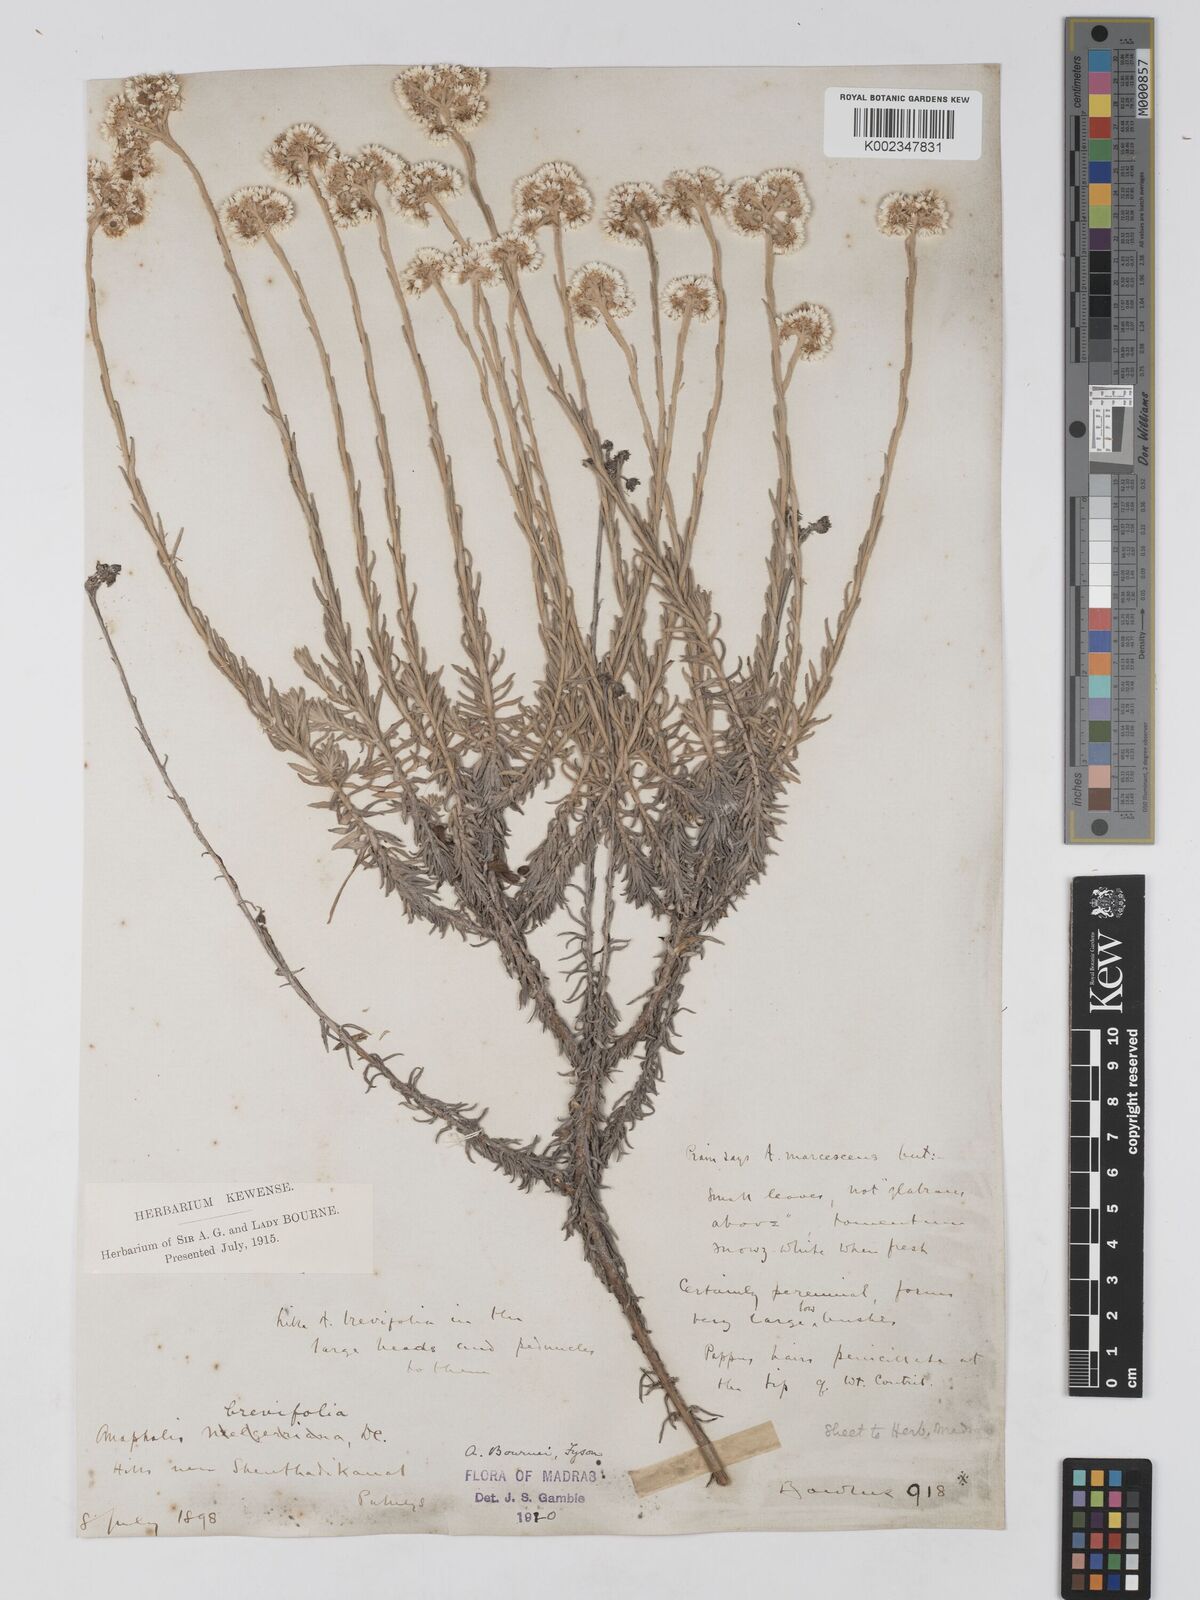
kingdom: Plantae
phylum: Tracheophyta
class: Magnoliopsida
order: Asterales
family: Asteraceae
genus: Anaphalis
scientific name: Anaphalis brevifolia
